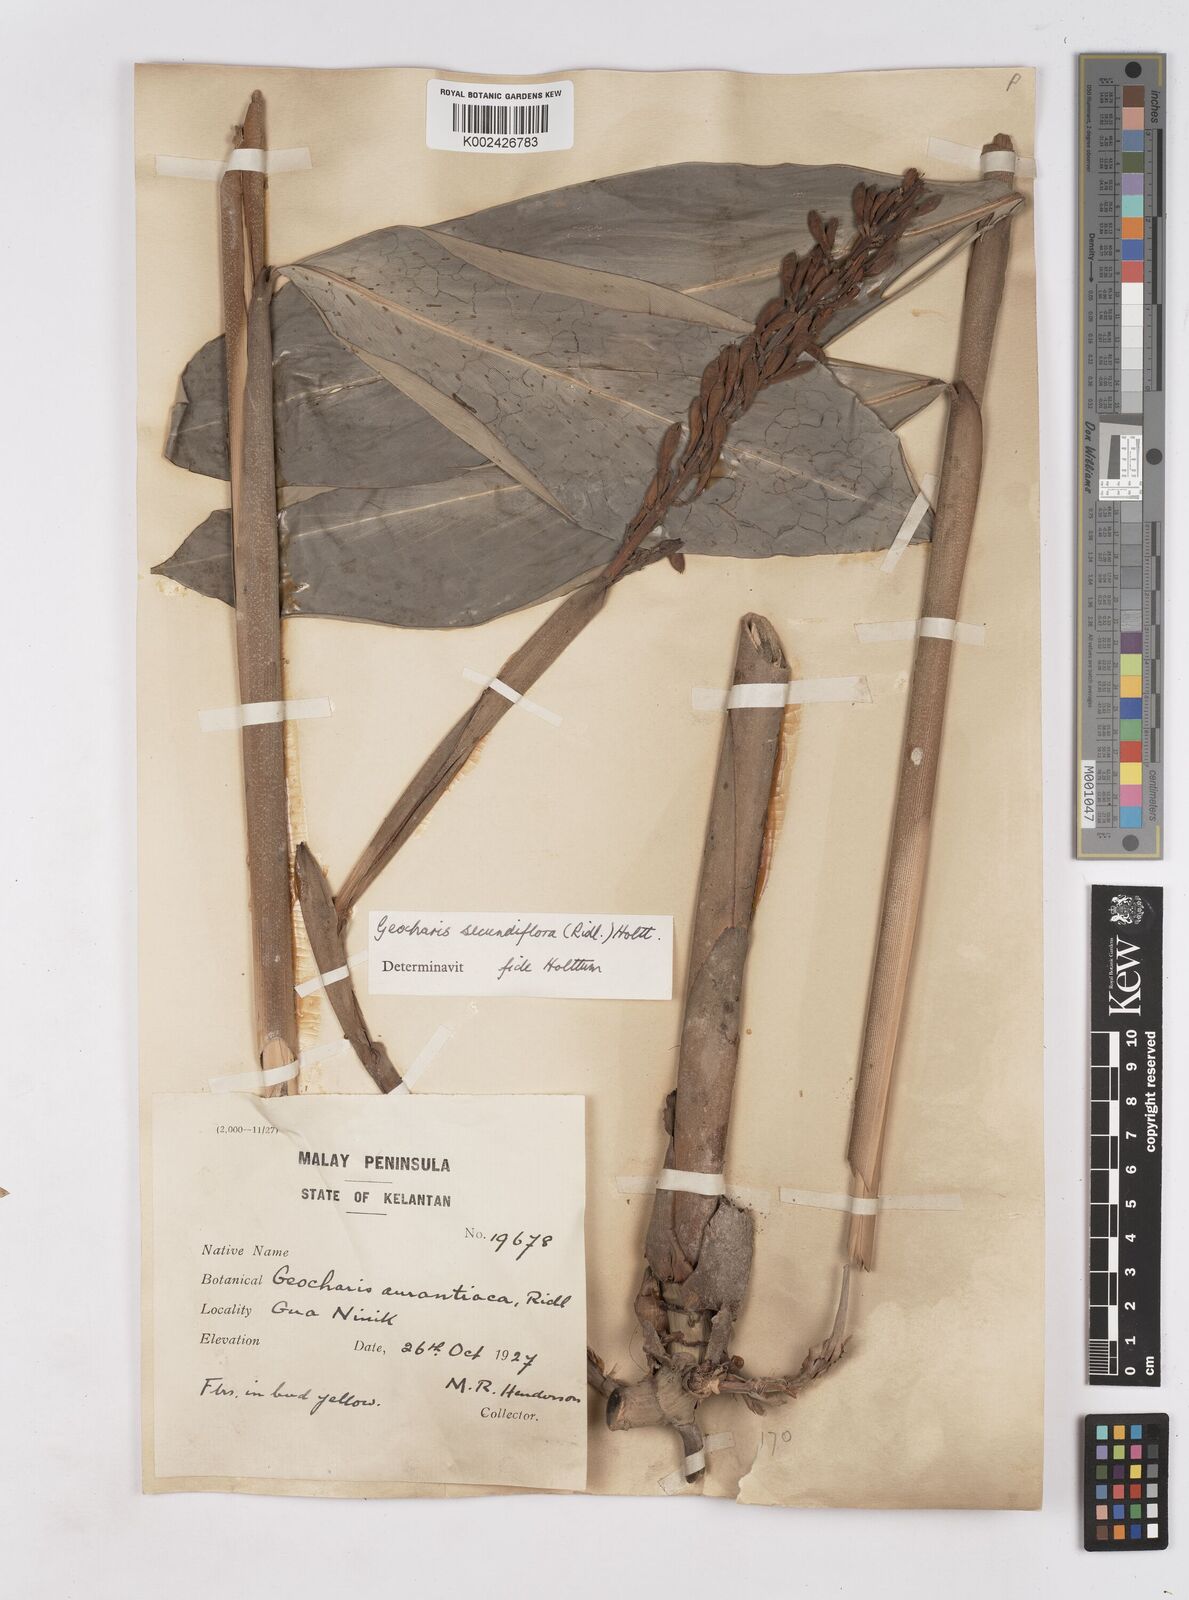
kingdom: Plantae
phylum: Tracheophyta
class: Liliopsida
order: Zingiberales
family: Zingiberaceae
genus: Geocharis
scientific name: Geocharis secundiflora
